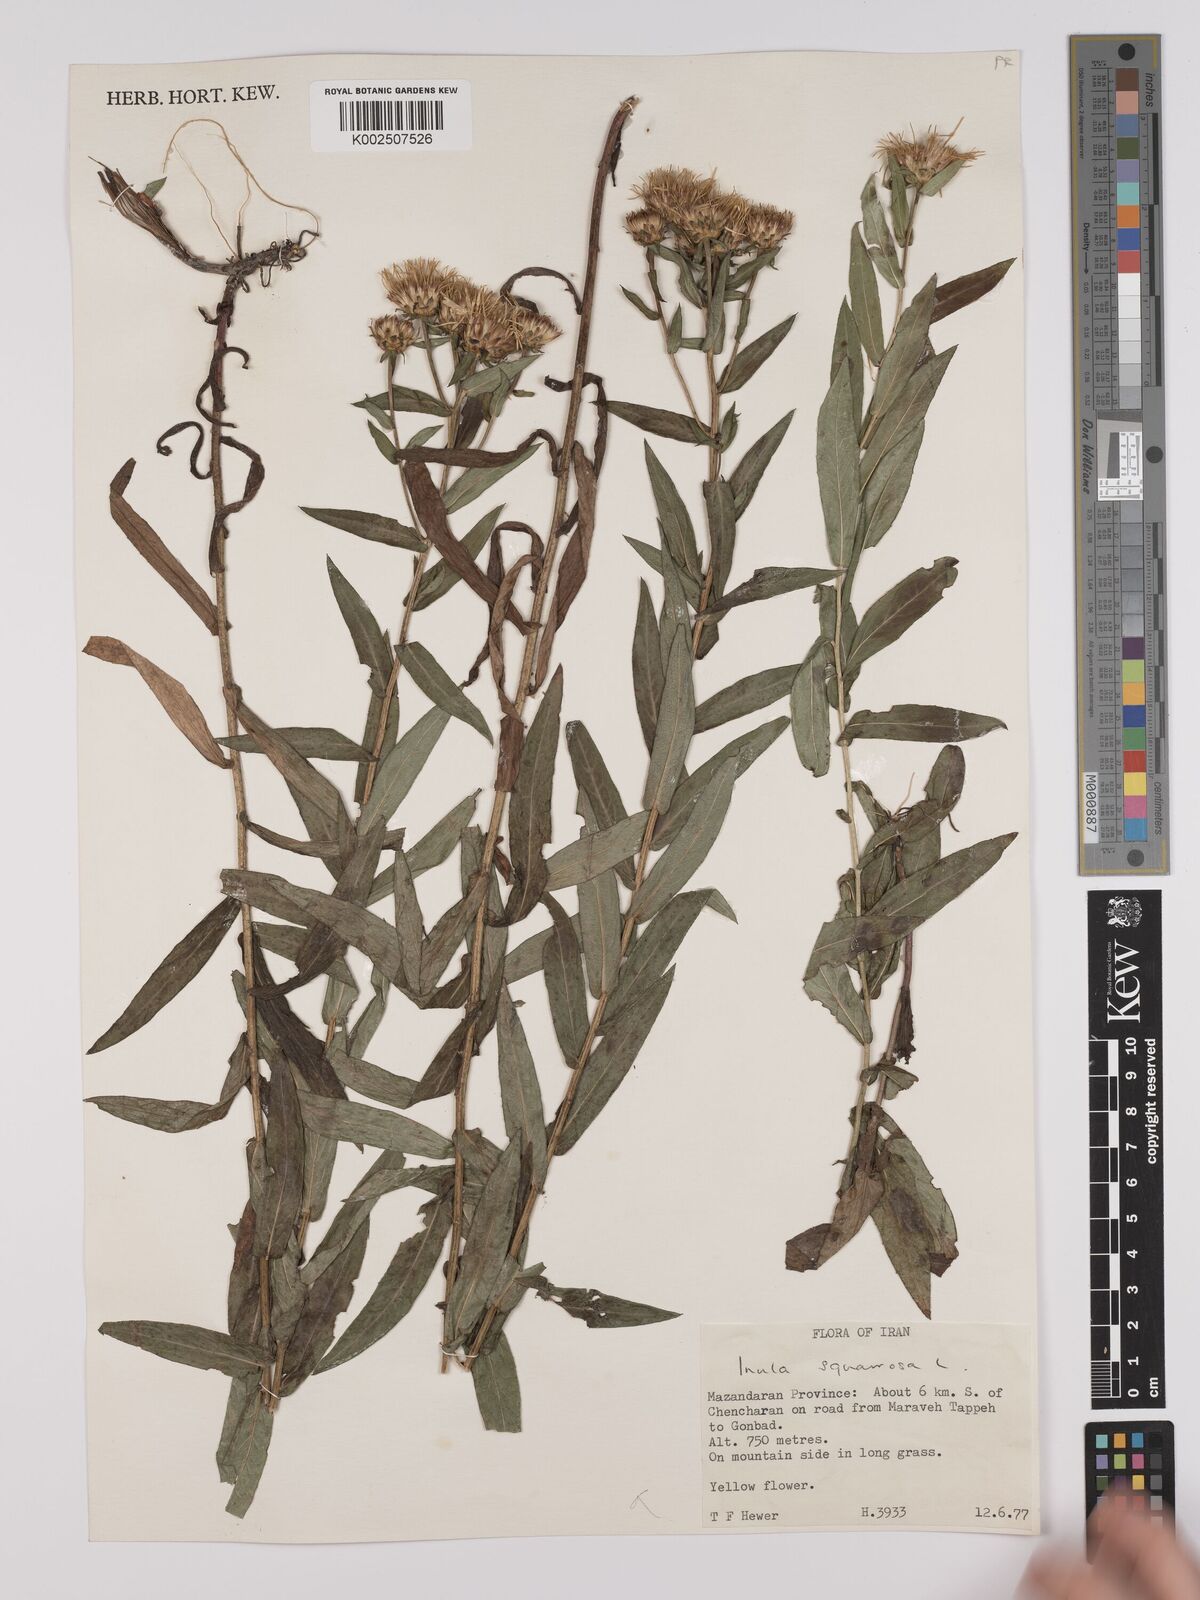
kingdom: Plantae
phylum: Tracheophyta
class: Magnoliopsida
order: Asterales
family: Asteraceae
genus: Pentanema
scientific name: Pentanema spiraeifolium
